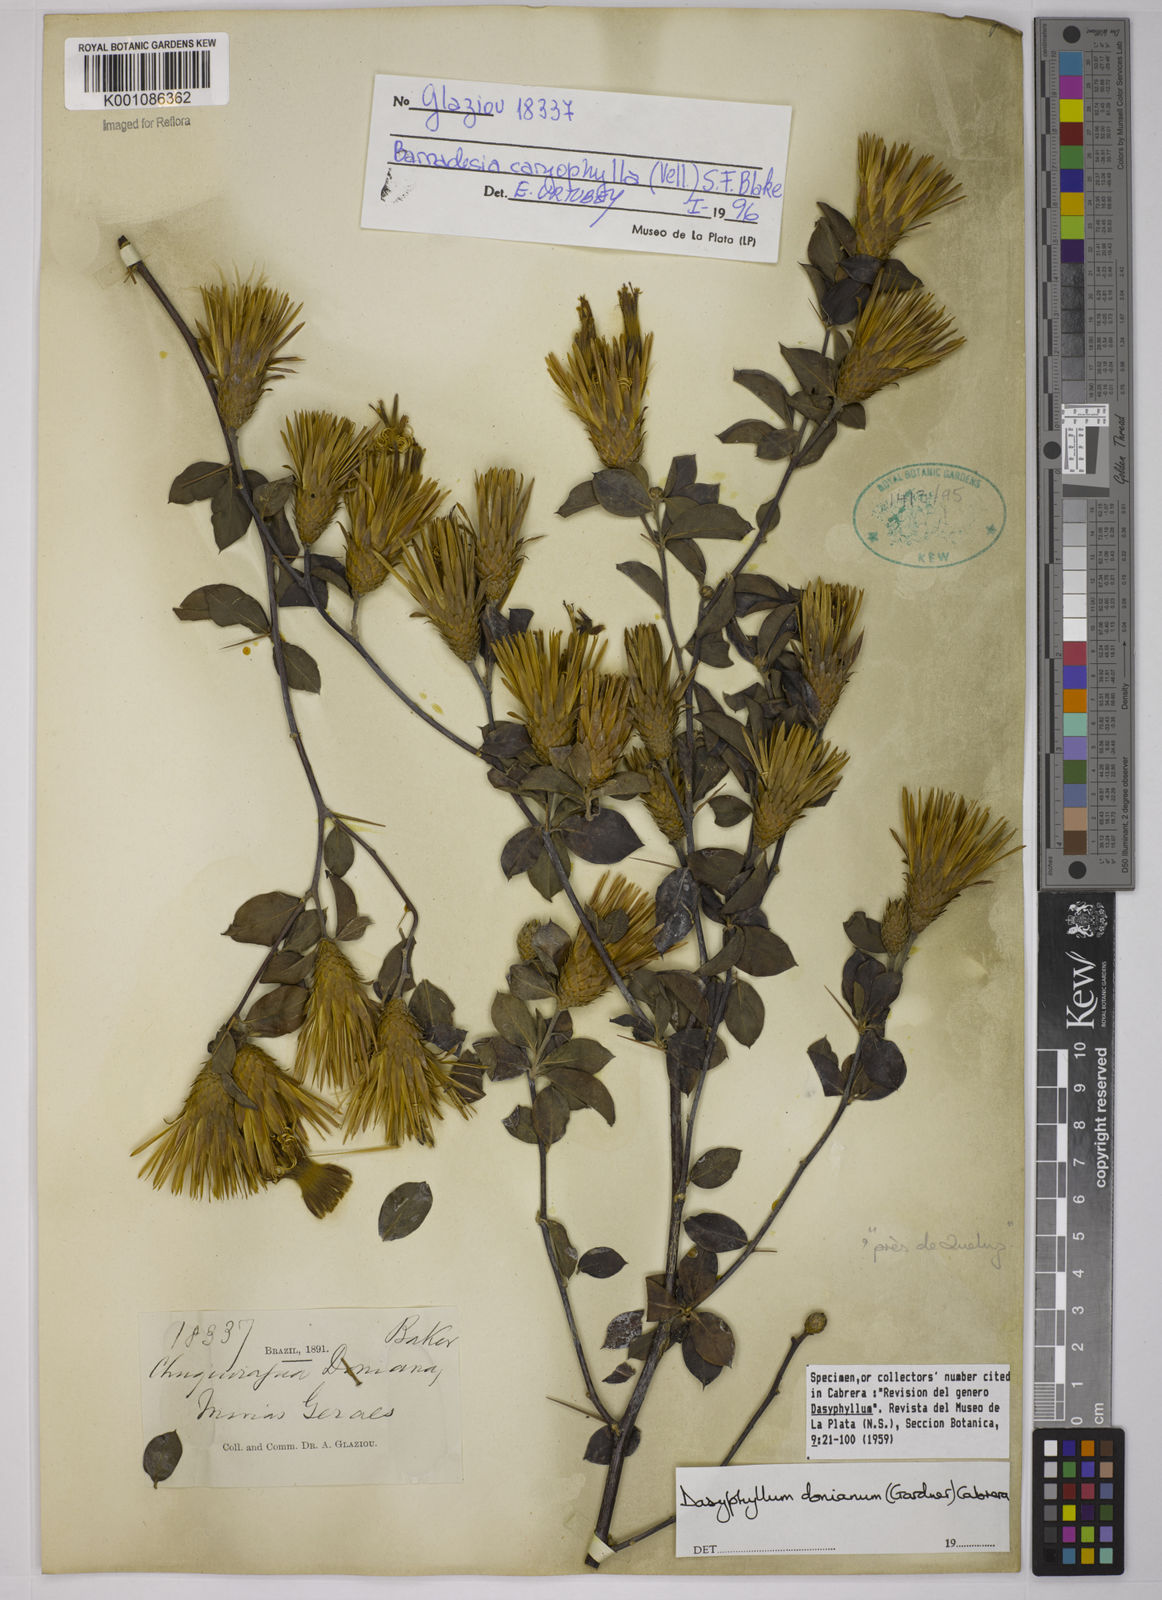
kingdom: Plantae
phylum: Tracheophyta
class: Magnoliopsida
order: Asterales
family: Asteraceae
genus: Barnadesia
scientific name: Barnadesia caryophylla
